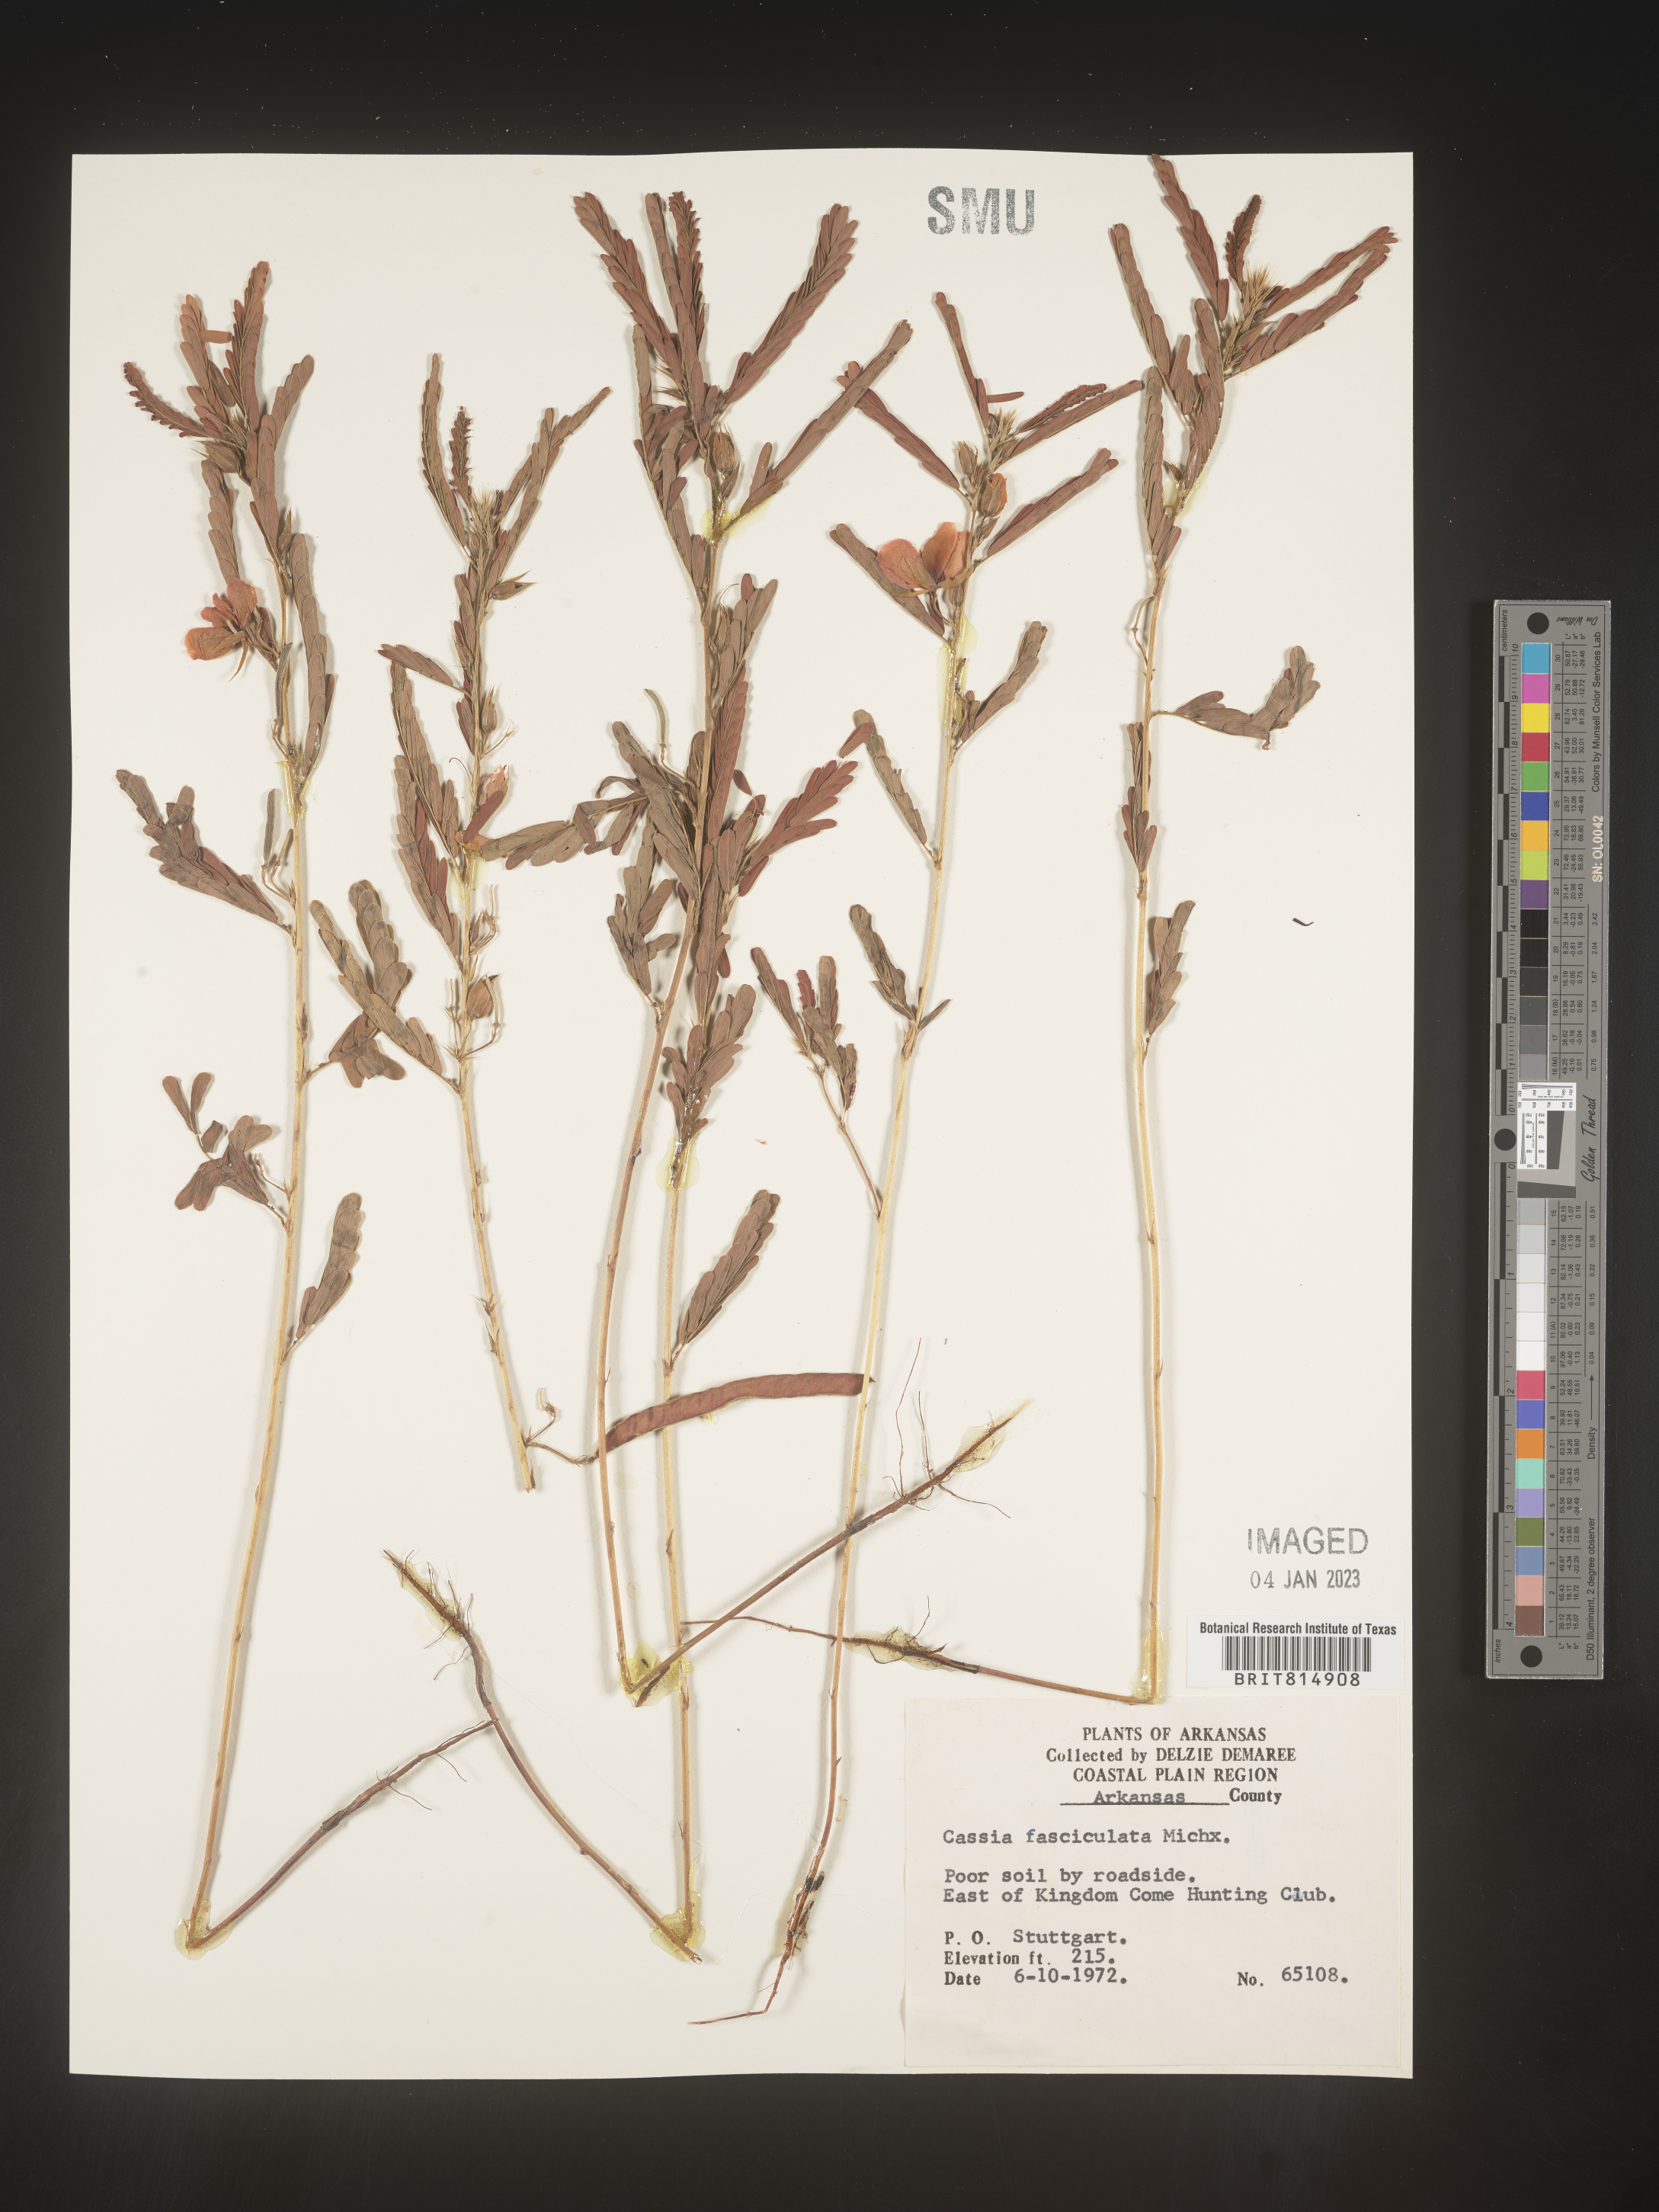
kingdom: Plantae
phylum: Tracheophyta
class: Magnoliopsida
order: Fabales
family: Fabaceae
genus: Chamaecrista
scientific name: Chamaecrista fasciculata
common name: Golden cassia
